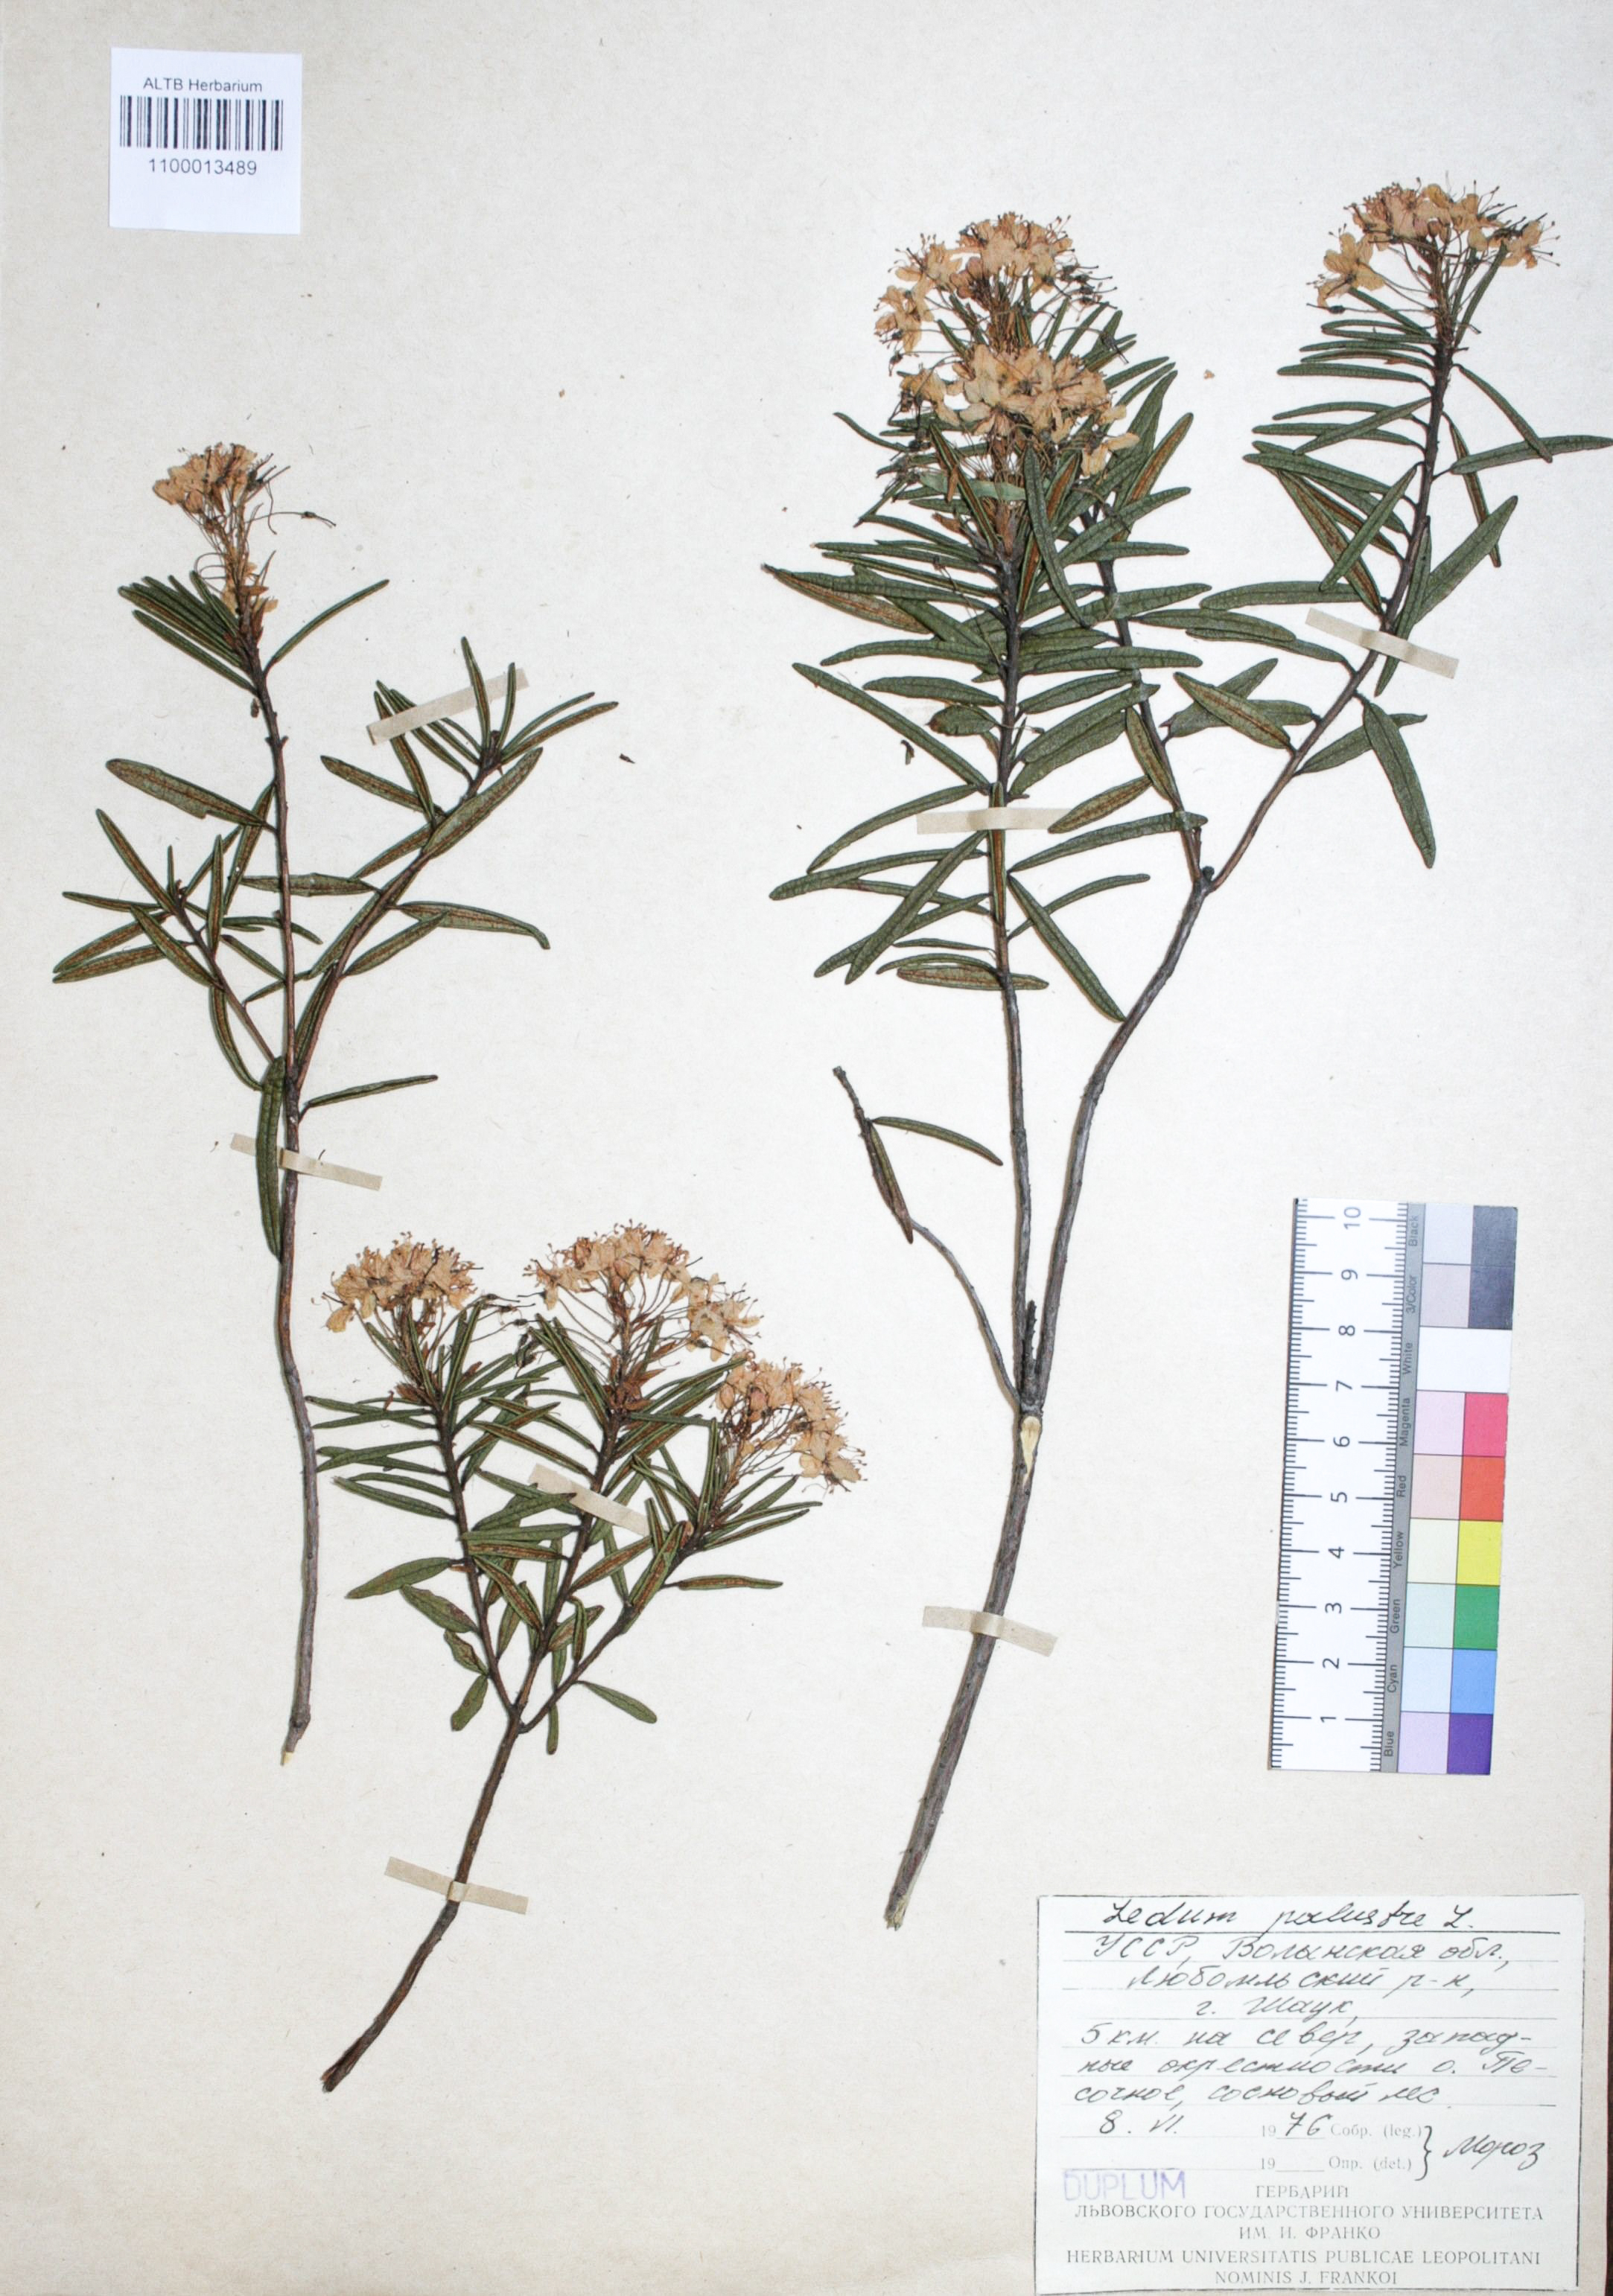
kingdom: Plantae
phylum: Tracheophyta
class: Magnoliopsida
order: Ericales
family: Ericaceae
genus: Rhododendron
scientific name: Rhododendron tomentosum
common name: Marsh labrador tea
